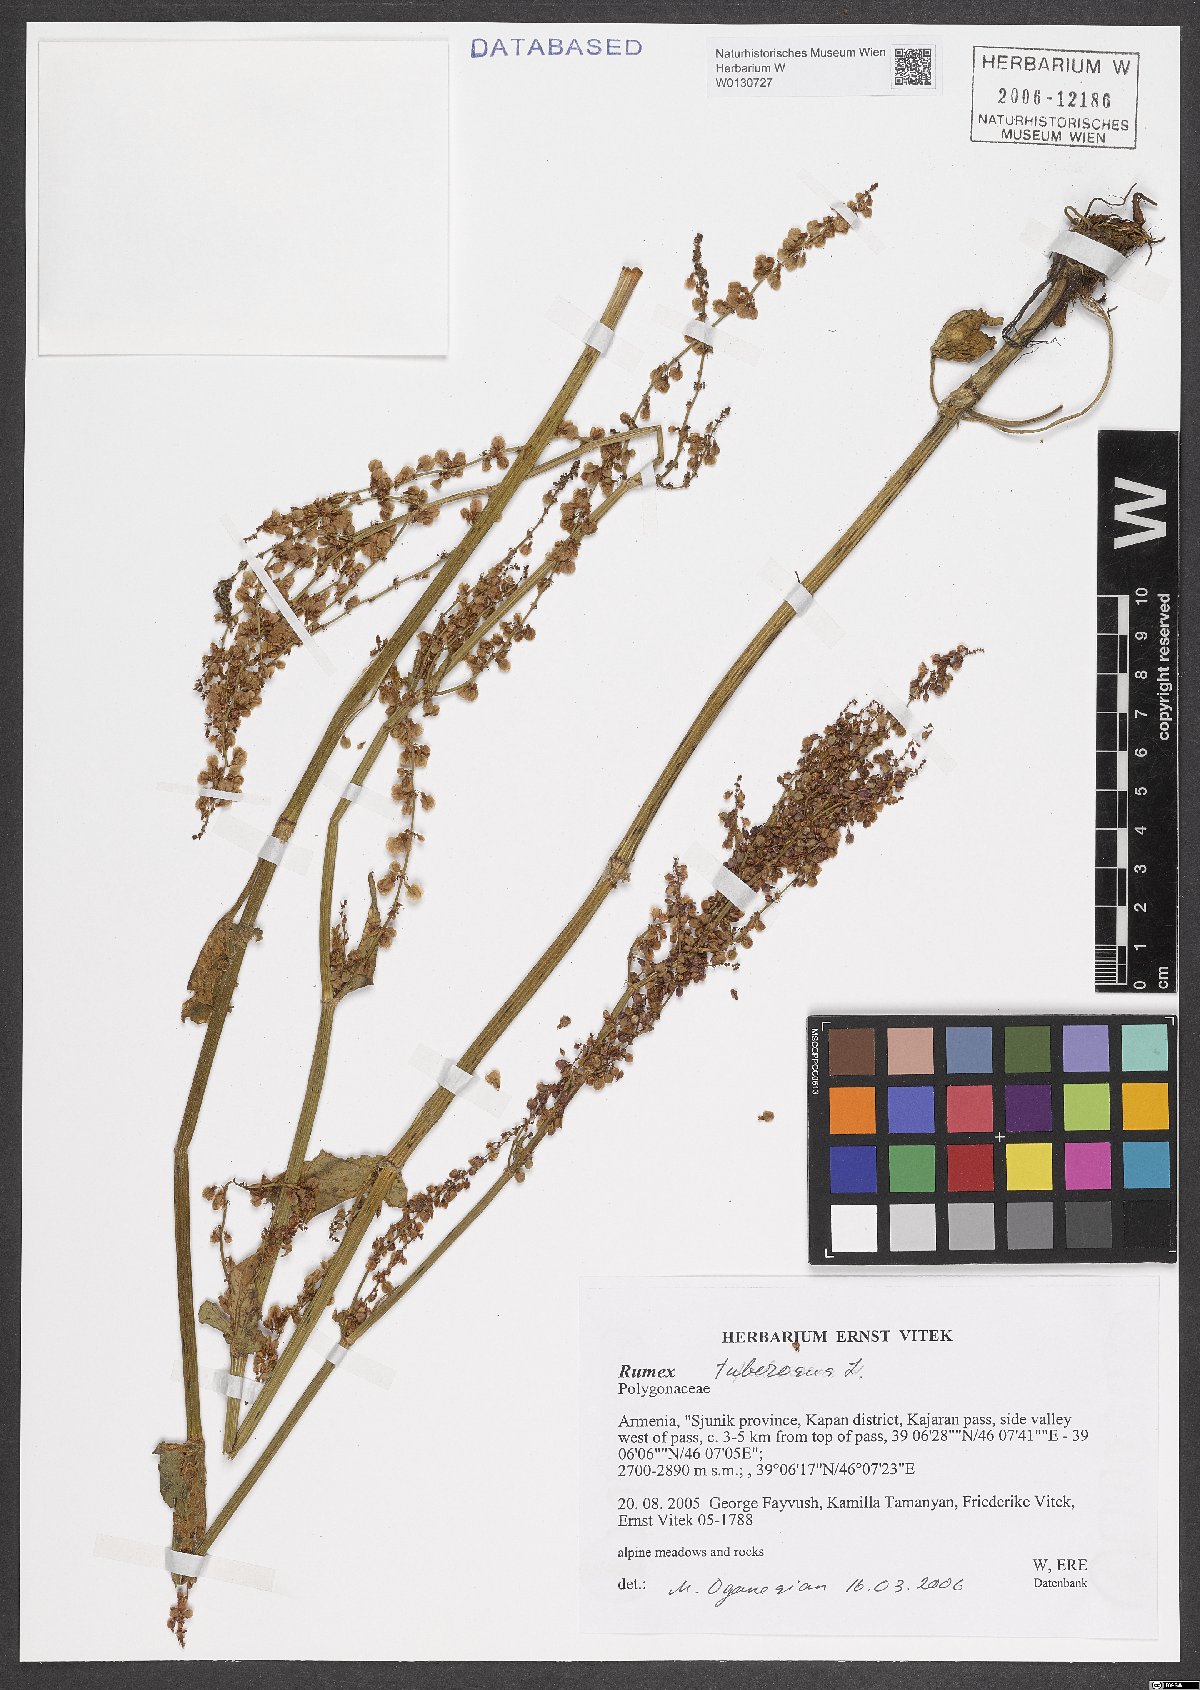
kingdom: Plantae
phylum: Tracheophyta
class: Magnoliopsida
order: Caryophyllales
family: Polygonaceae
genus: Rumex
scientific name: Rumex tuberosus
